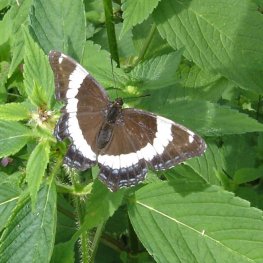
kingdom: Animalia
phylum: Arthropoda
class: Insecta
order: Lepidoptera
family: Nymphalidae
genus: Limenitis
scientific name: Limenitis arthemis
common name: Red-spotted Admiral
